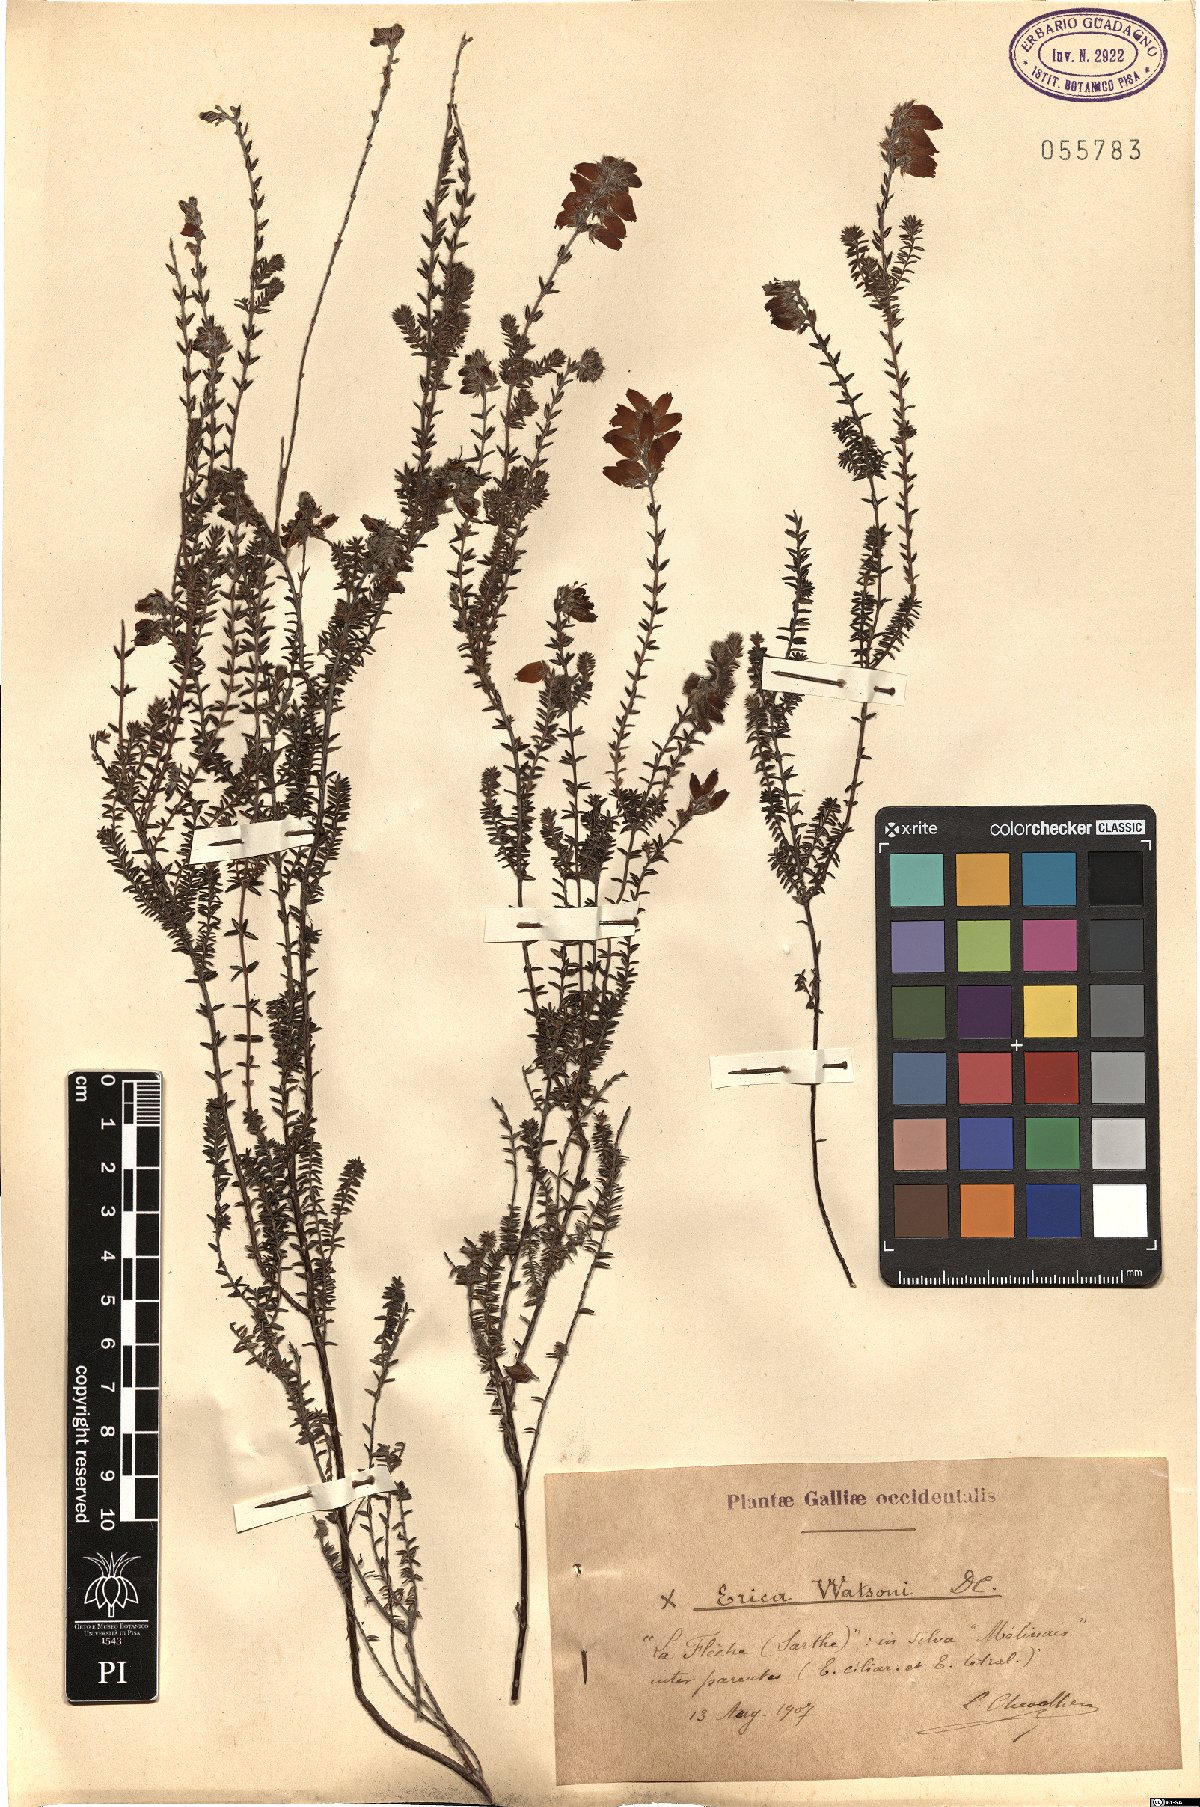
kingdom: Plantae
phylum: Tracheophyta
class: Magnoliopsida
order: Ericales
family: Ericaceae
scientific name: Ericaceae
